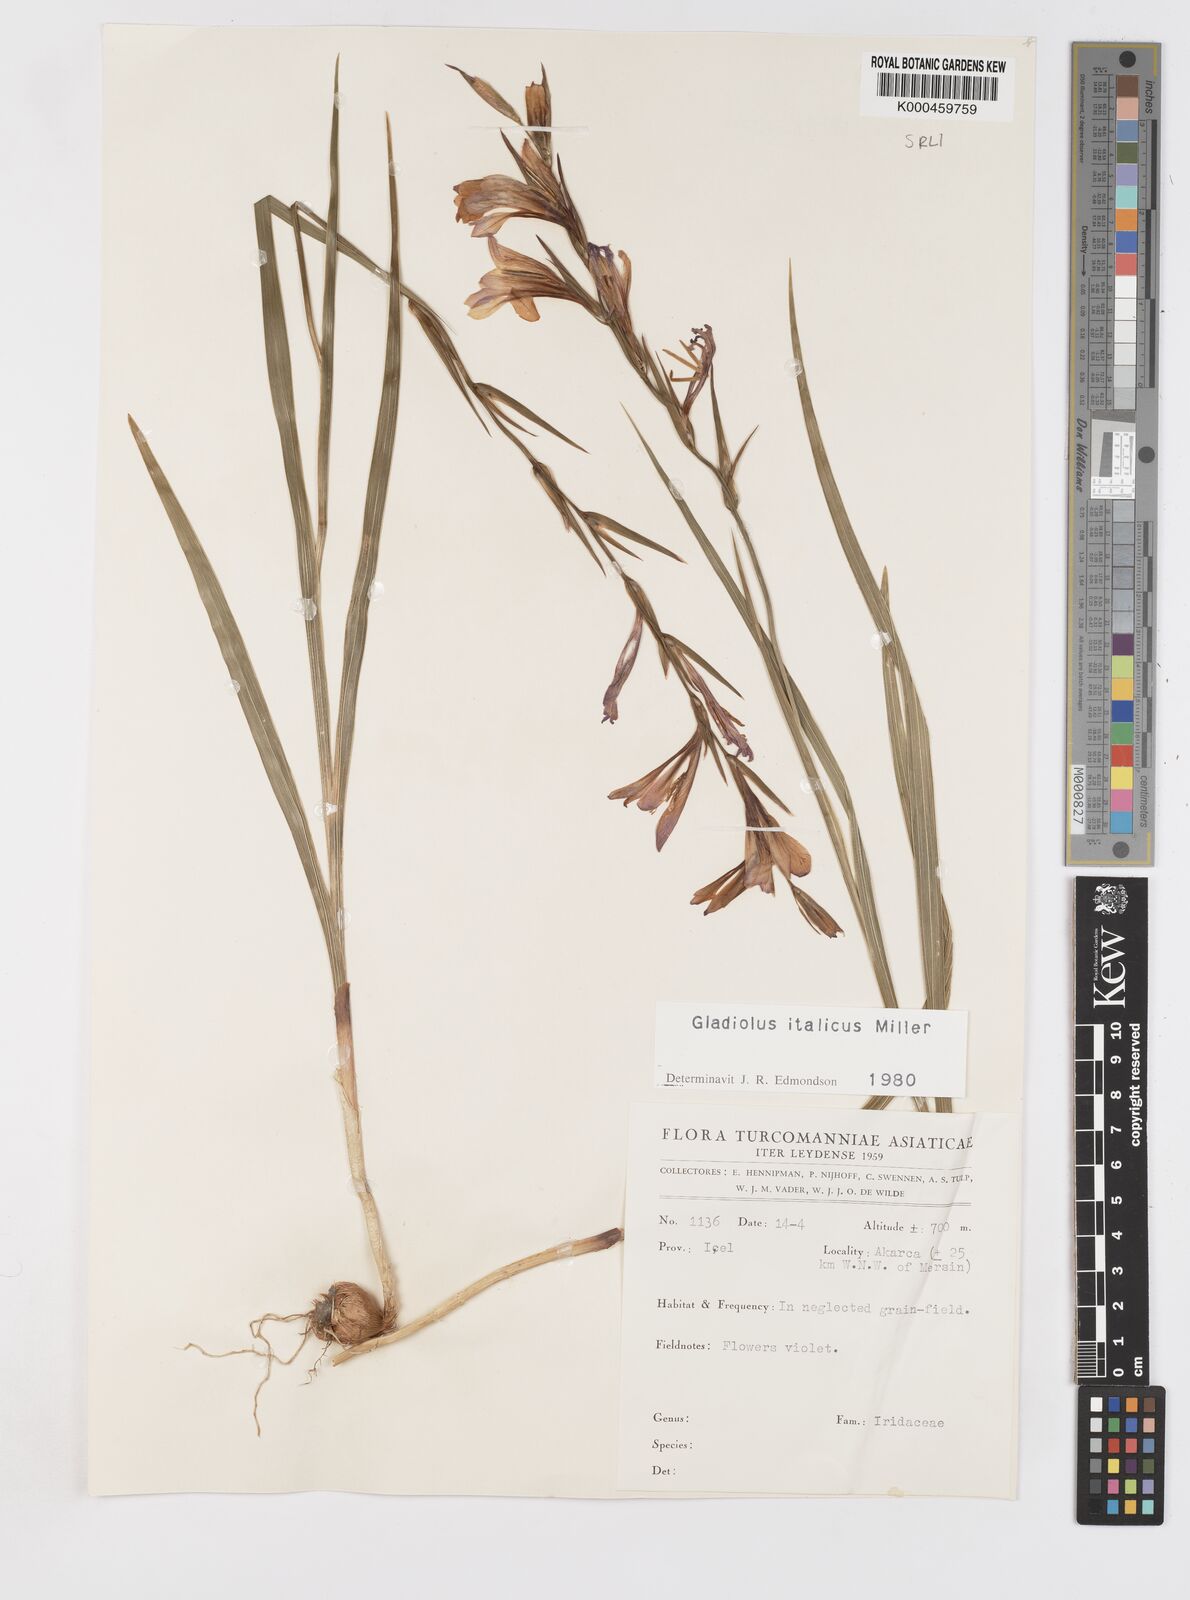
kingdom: Plantae
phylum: Tracheophyta
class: Liliopsida
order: Asparagales
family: Iridaceae
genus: Gladiolus
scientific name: Gladiolus italicus
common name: Field gladiolus
